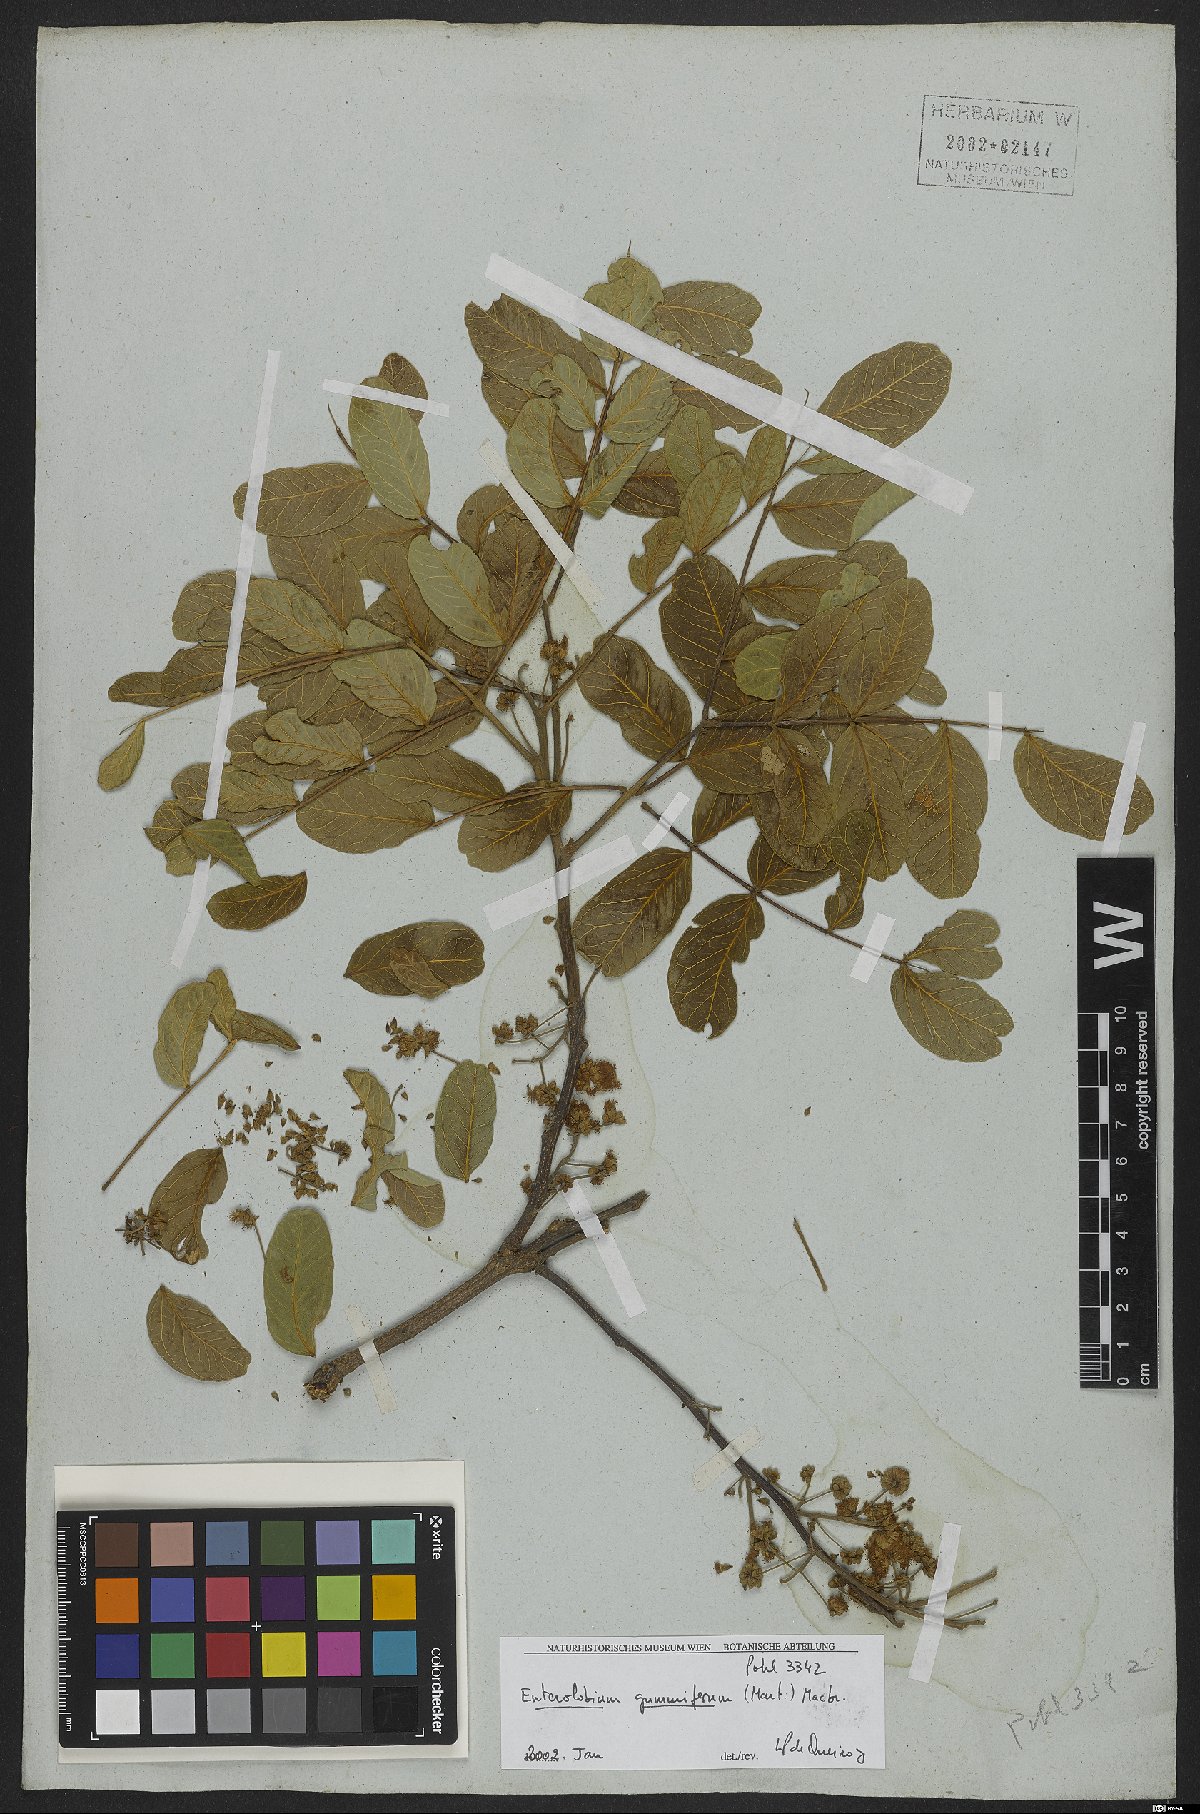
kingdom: Plantae
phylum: Tracheophyta
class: Magnoliopsida
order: Fabales
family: Fabaceae
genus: Enterolobium
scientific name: Enterolobium gummiferum
